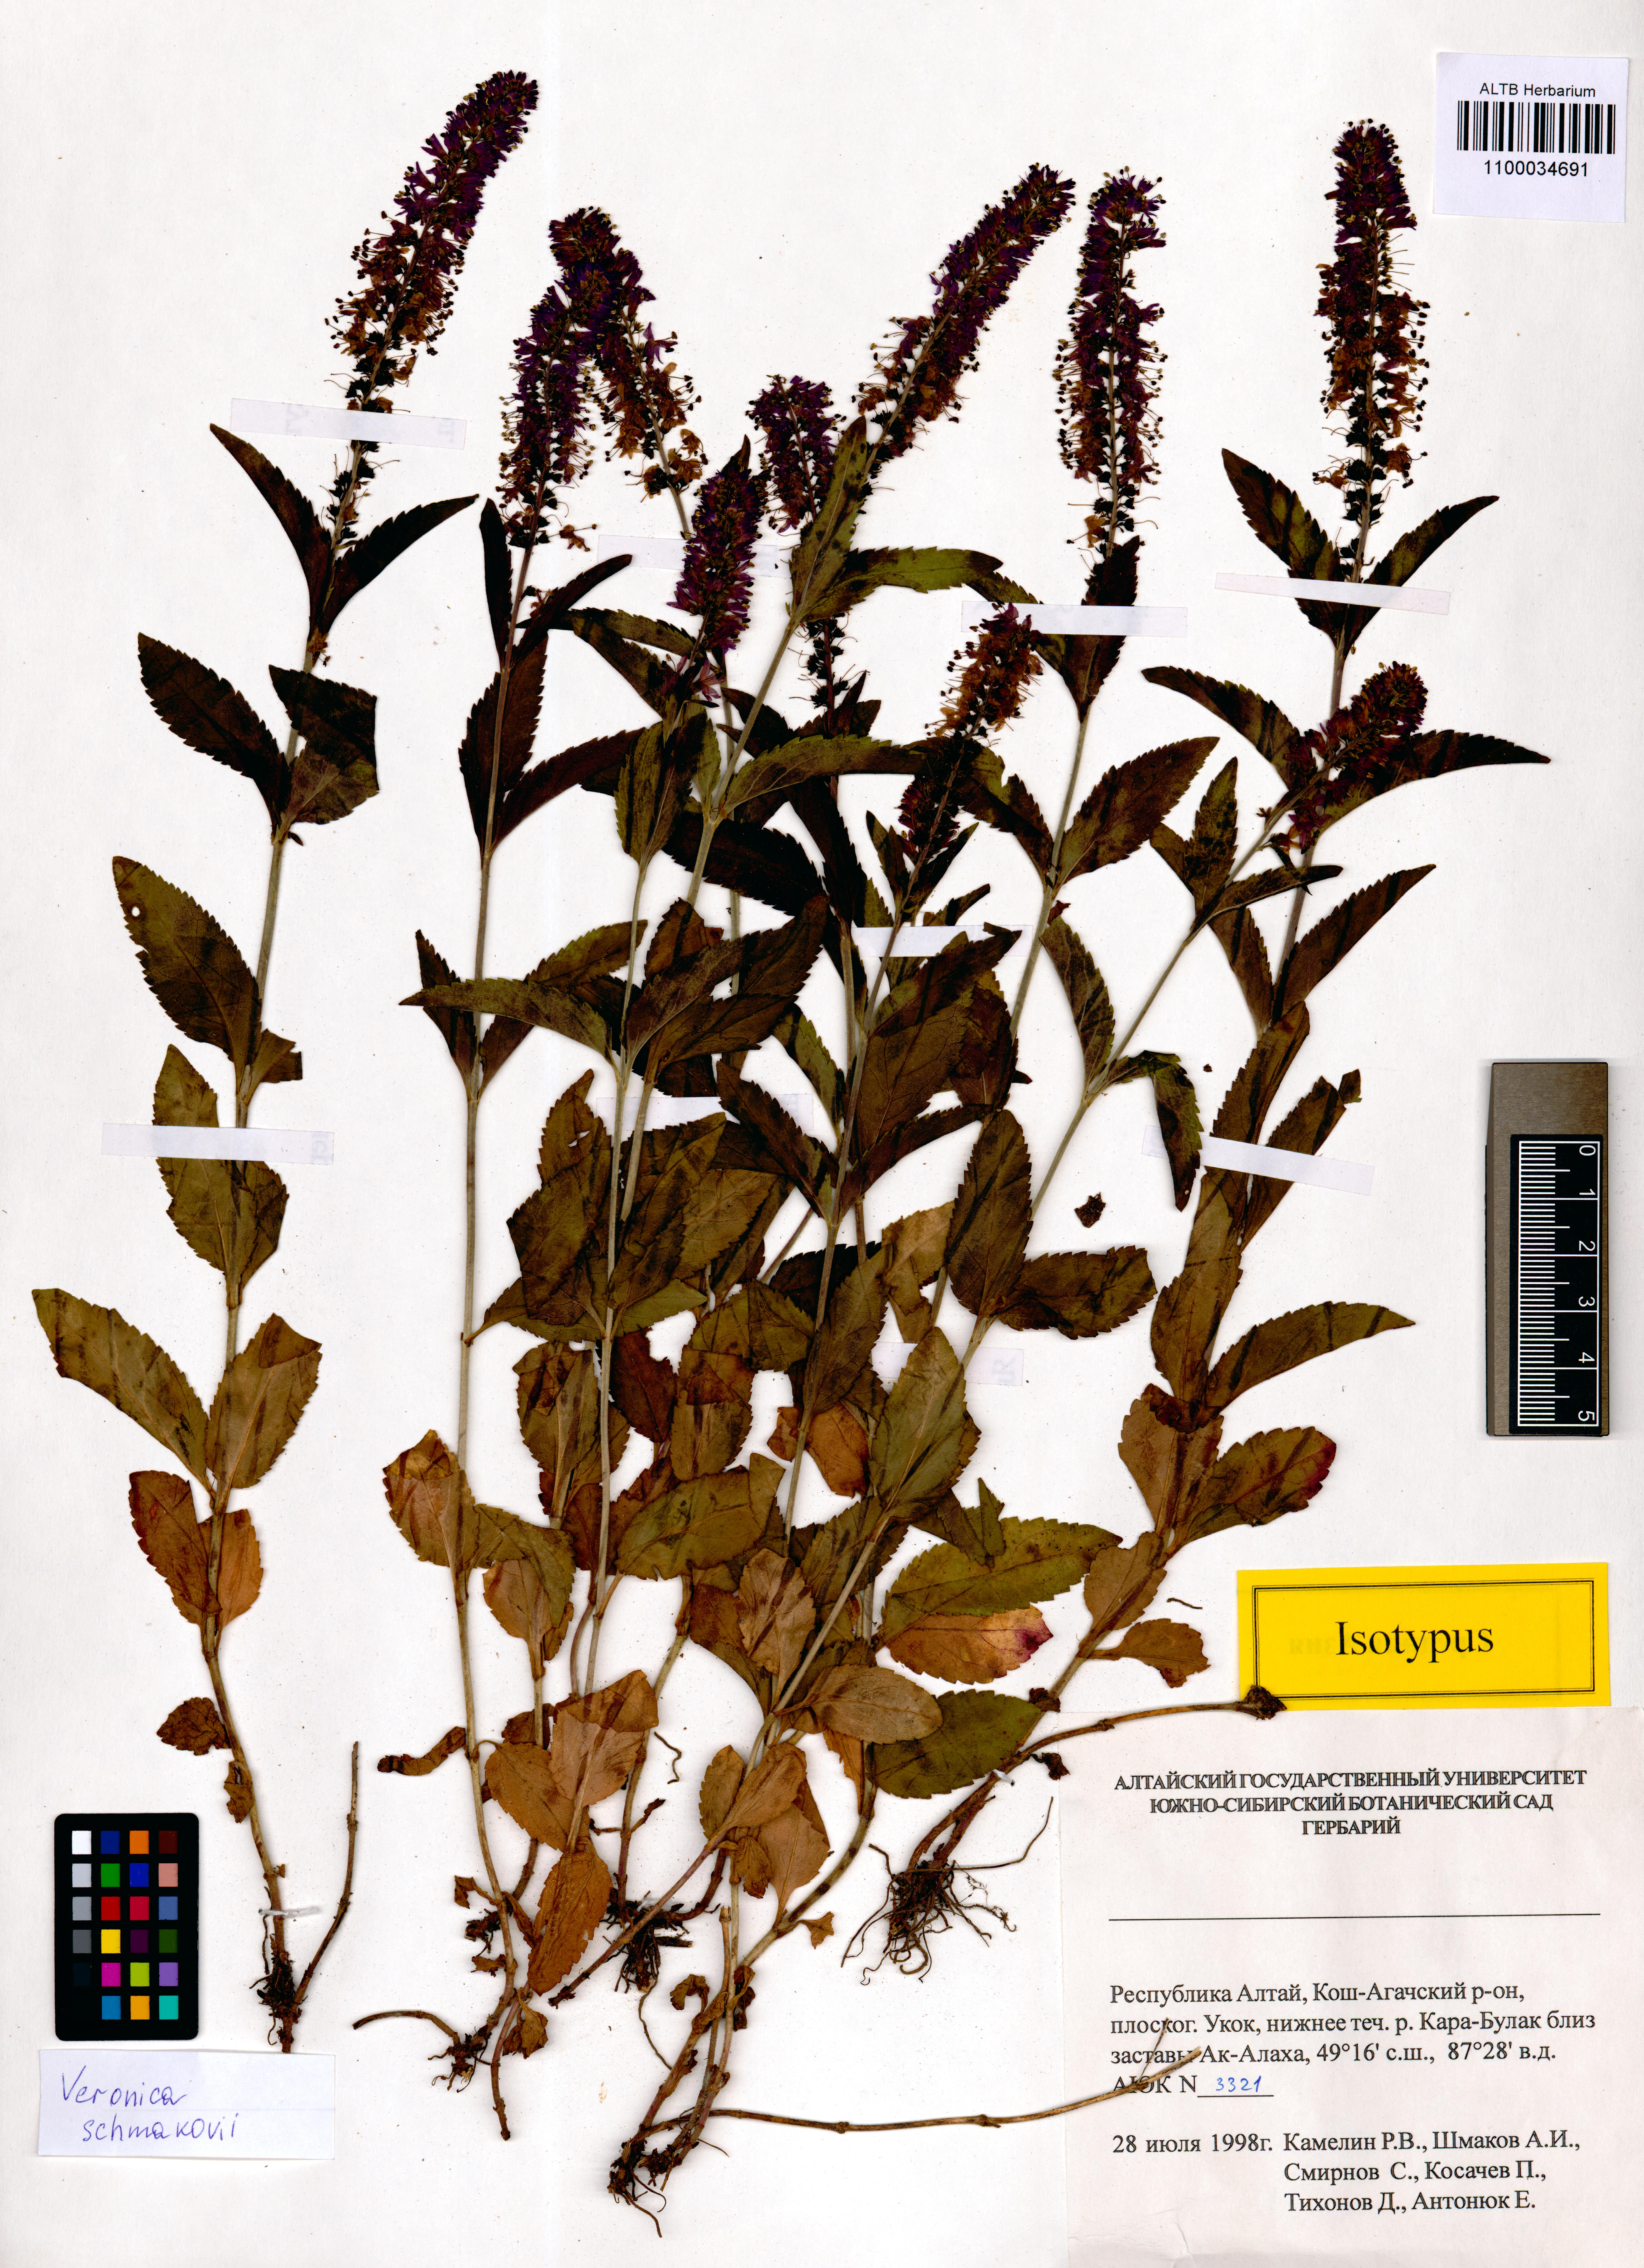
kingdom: Plantae
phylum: Tracheophyta
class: Magnoliopsida
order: Lamiales
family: Plantaginaceae
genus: Veronica
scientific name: Veronica schmakovii
